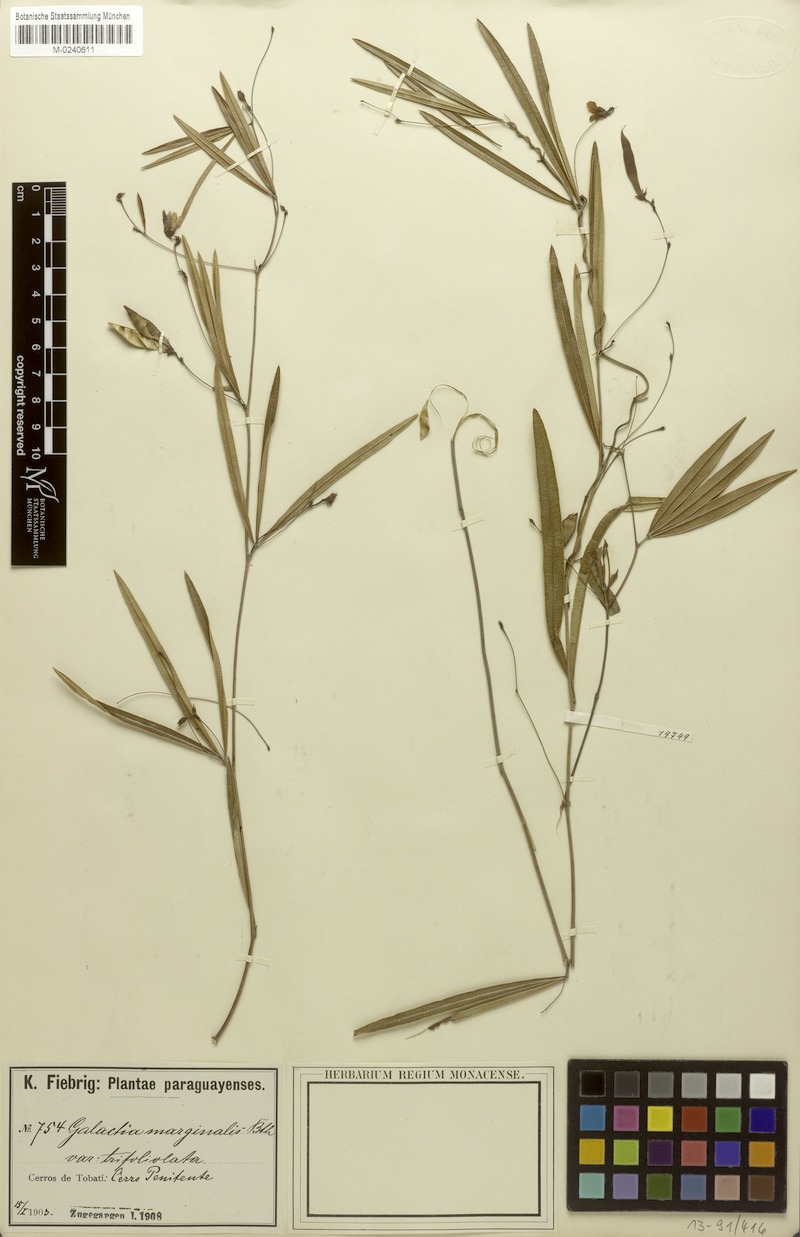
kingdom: Plantae
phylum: Tracheophyta
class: Magnoliopsida
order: Fabales
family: Fabaceae
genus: Nanogalactia
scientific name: Nanogalactia pretiosa
